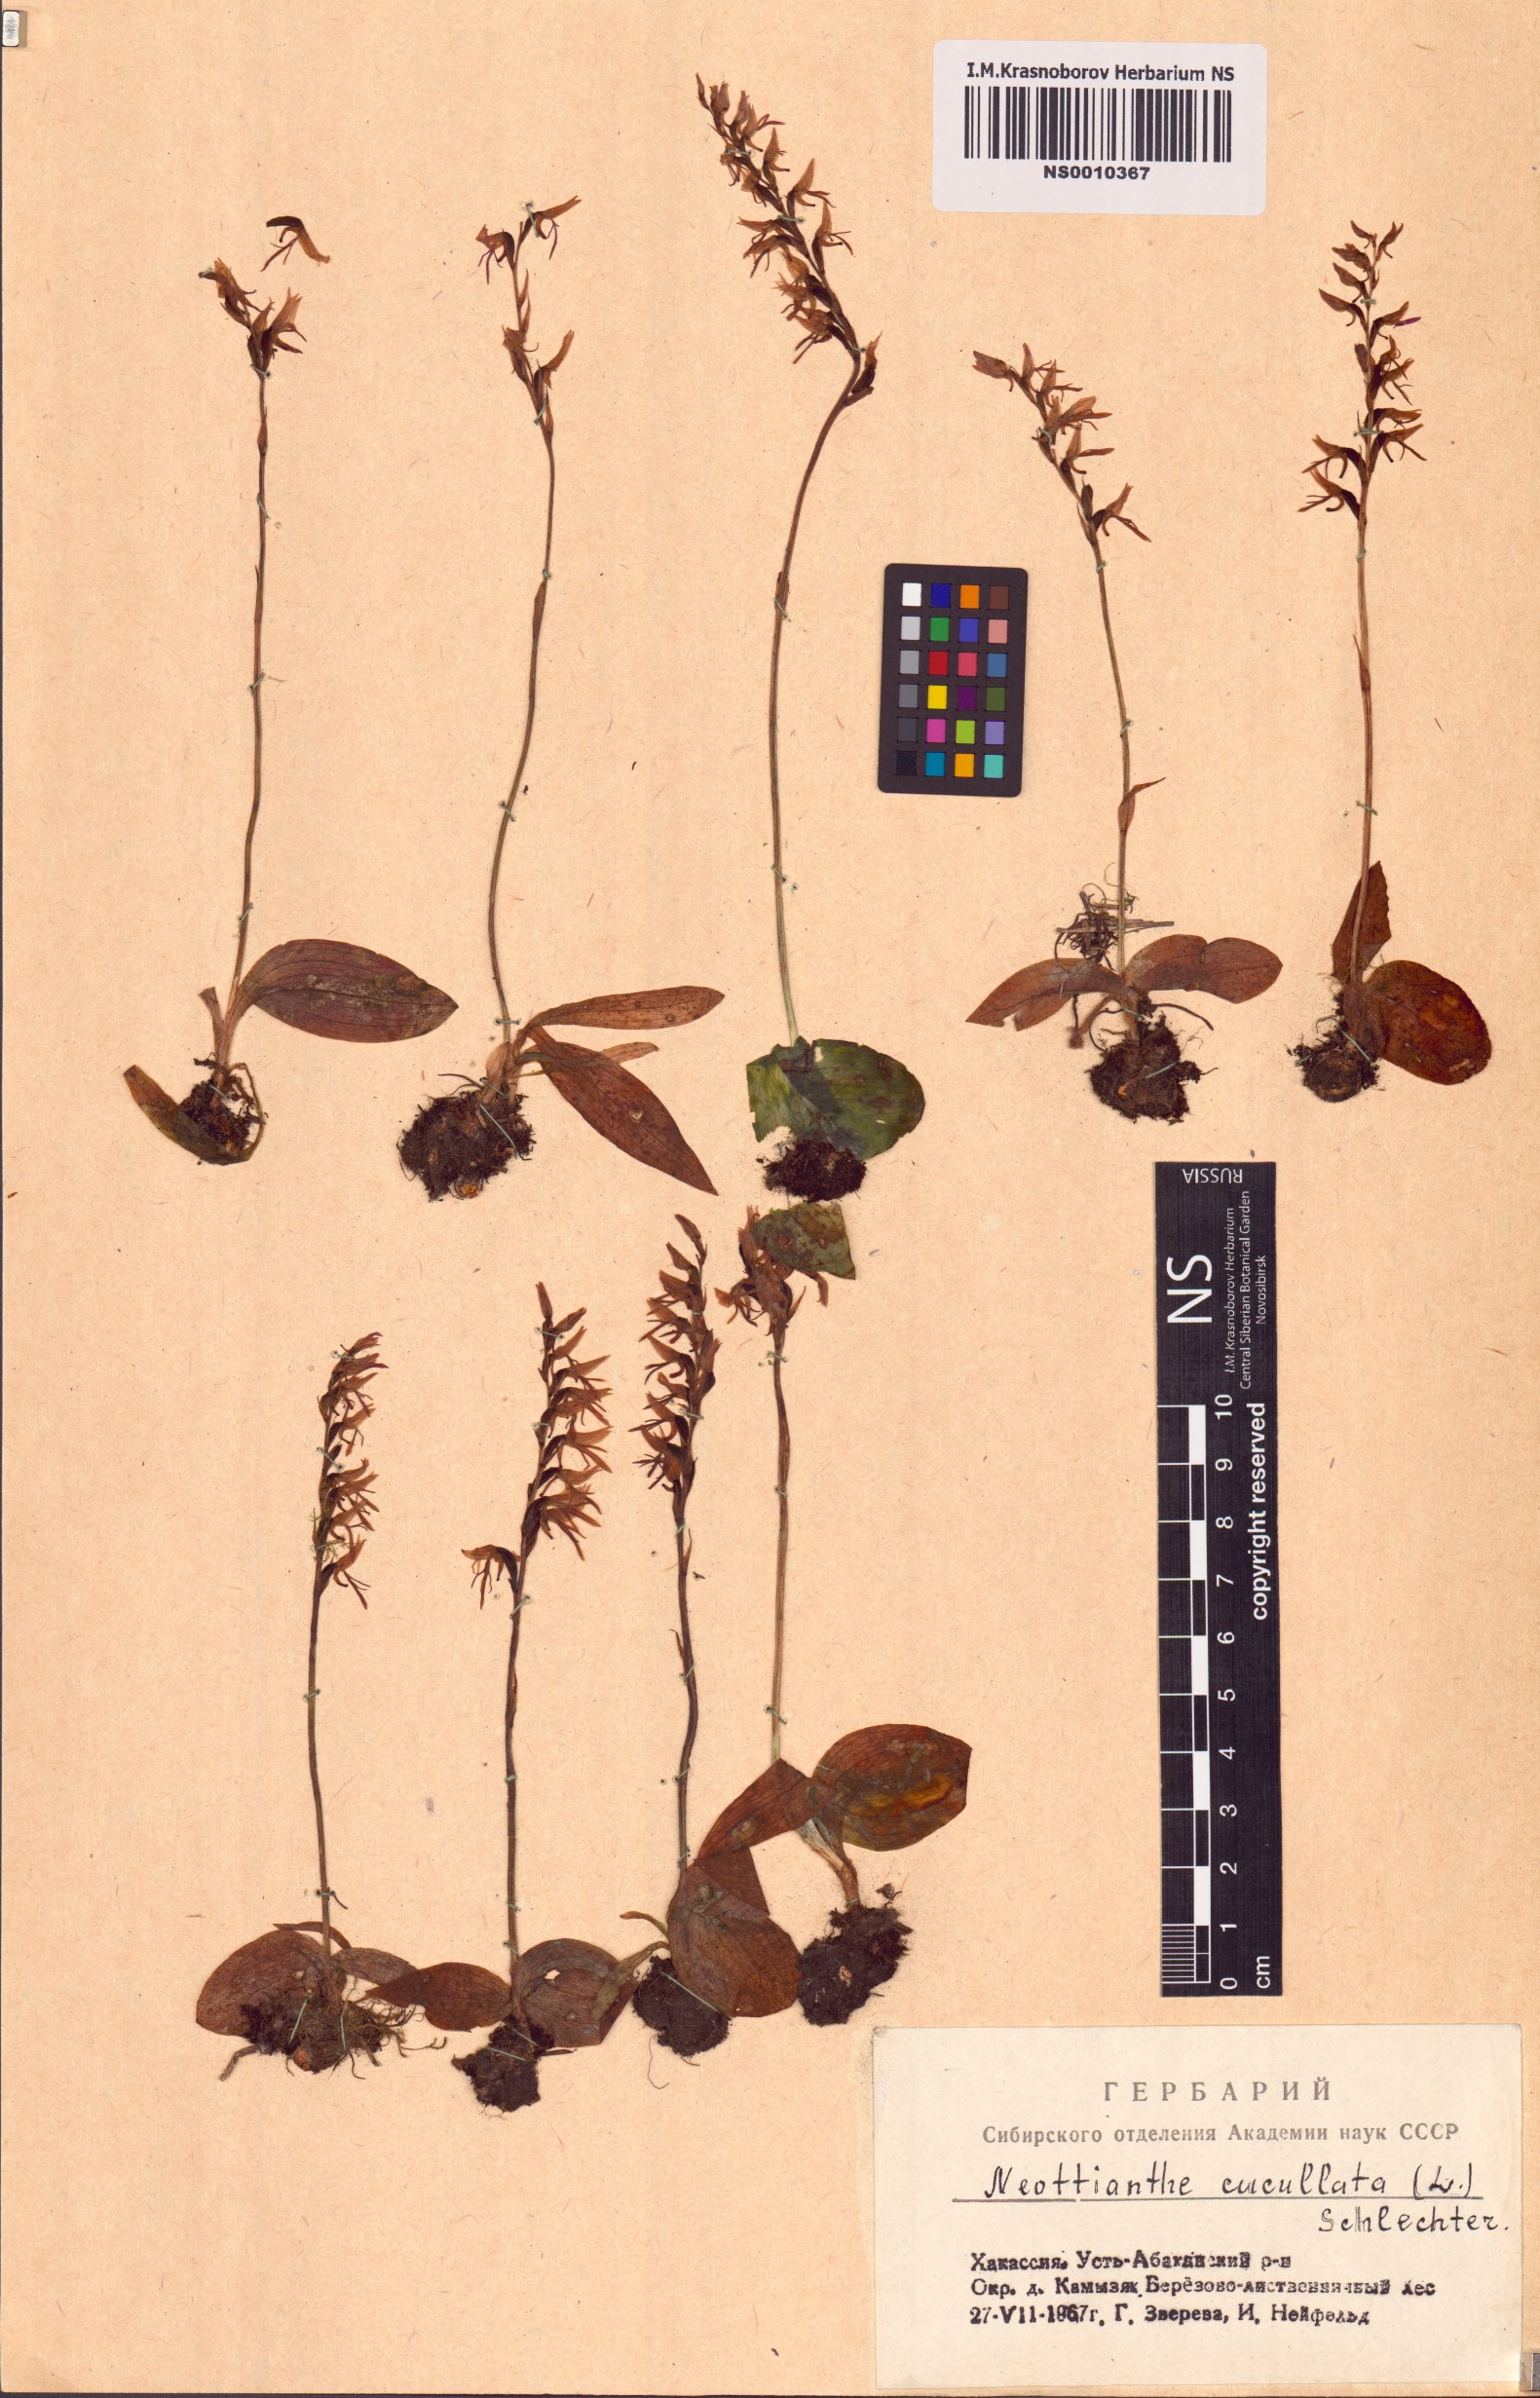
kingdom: Plantae
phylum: Tracheophyta
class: Liliopsida
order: Asparagales
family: Orchidaceae
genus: Hemipilia
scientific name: Hemipilia cucullata
